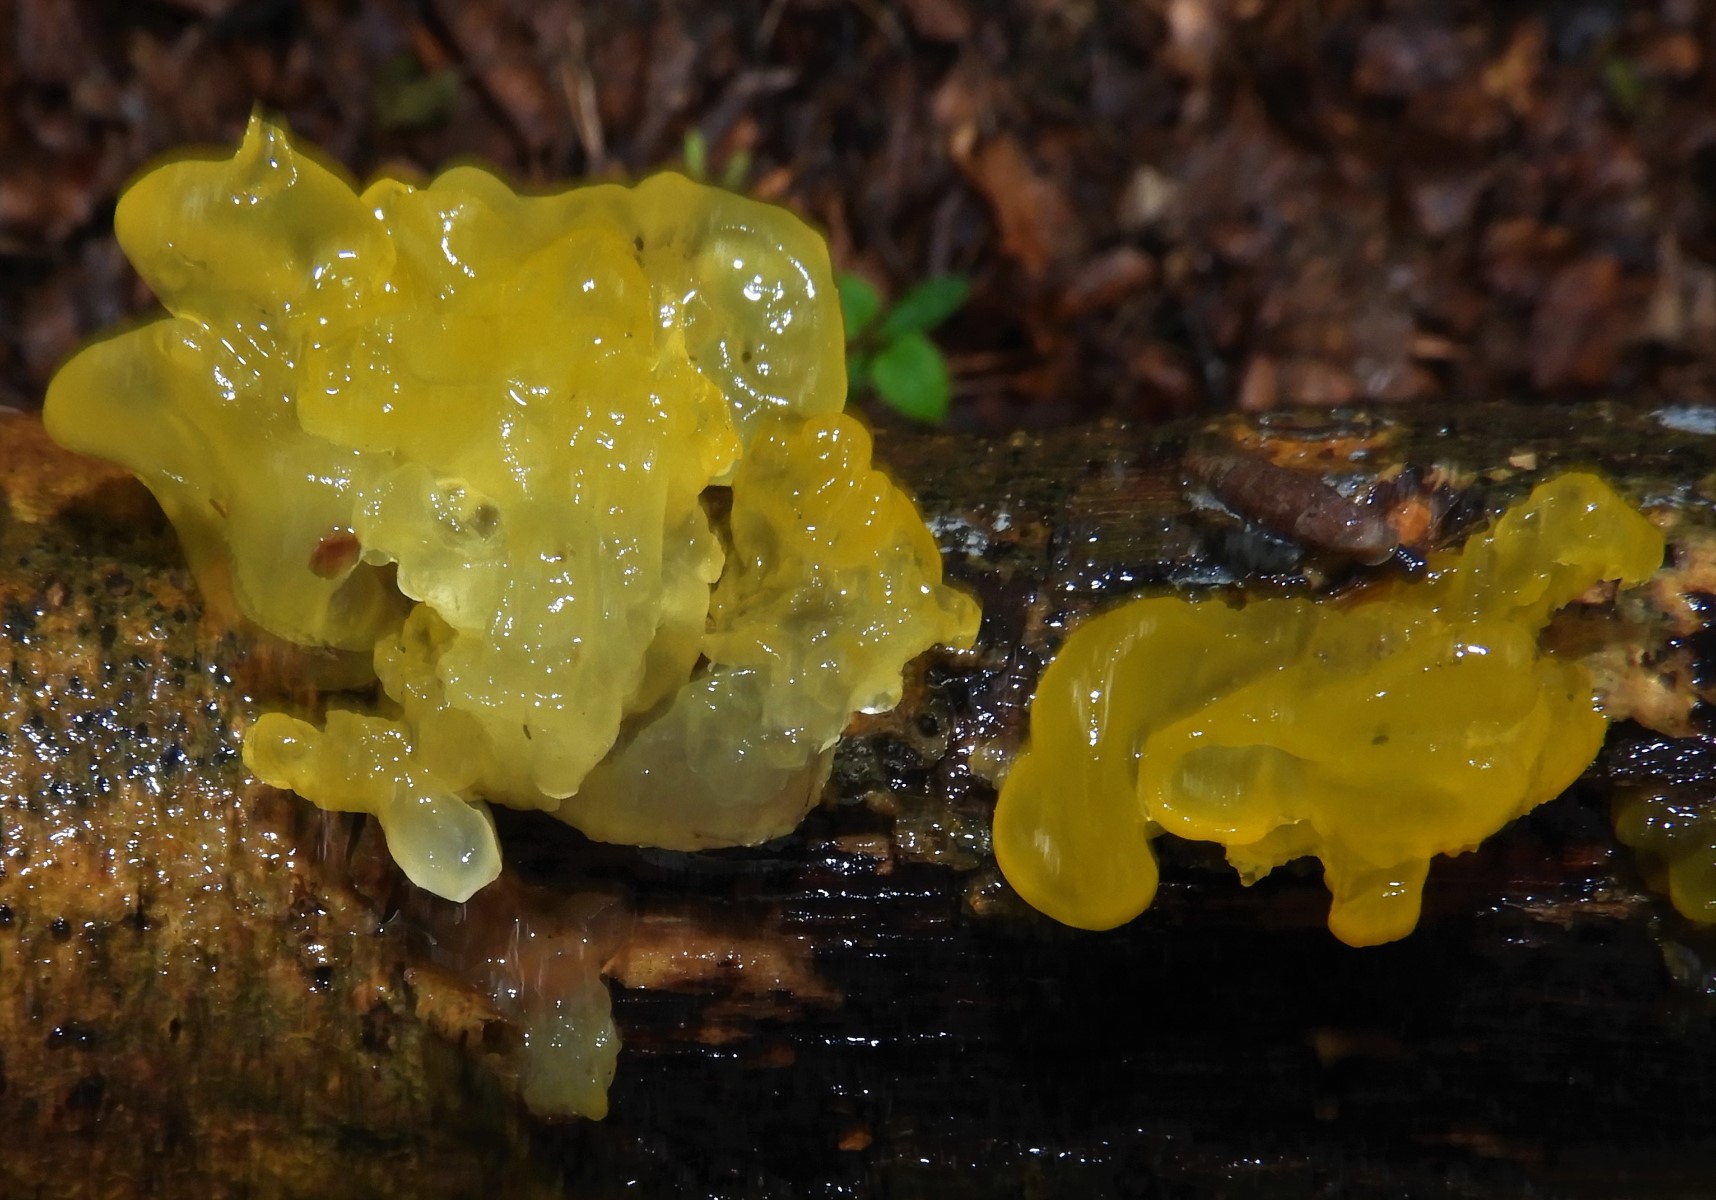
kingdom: Fungi
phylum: Basidiomycota
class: Tremellomycetes
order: Tremellales
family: Tremellaceae
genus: Tremella
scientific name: Tremella mesenterica
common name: gul bævresvamp
